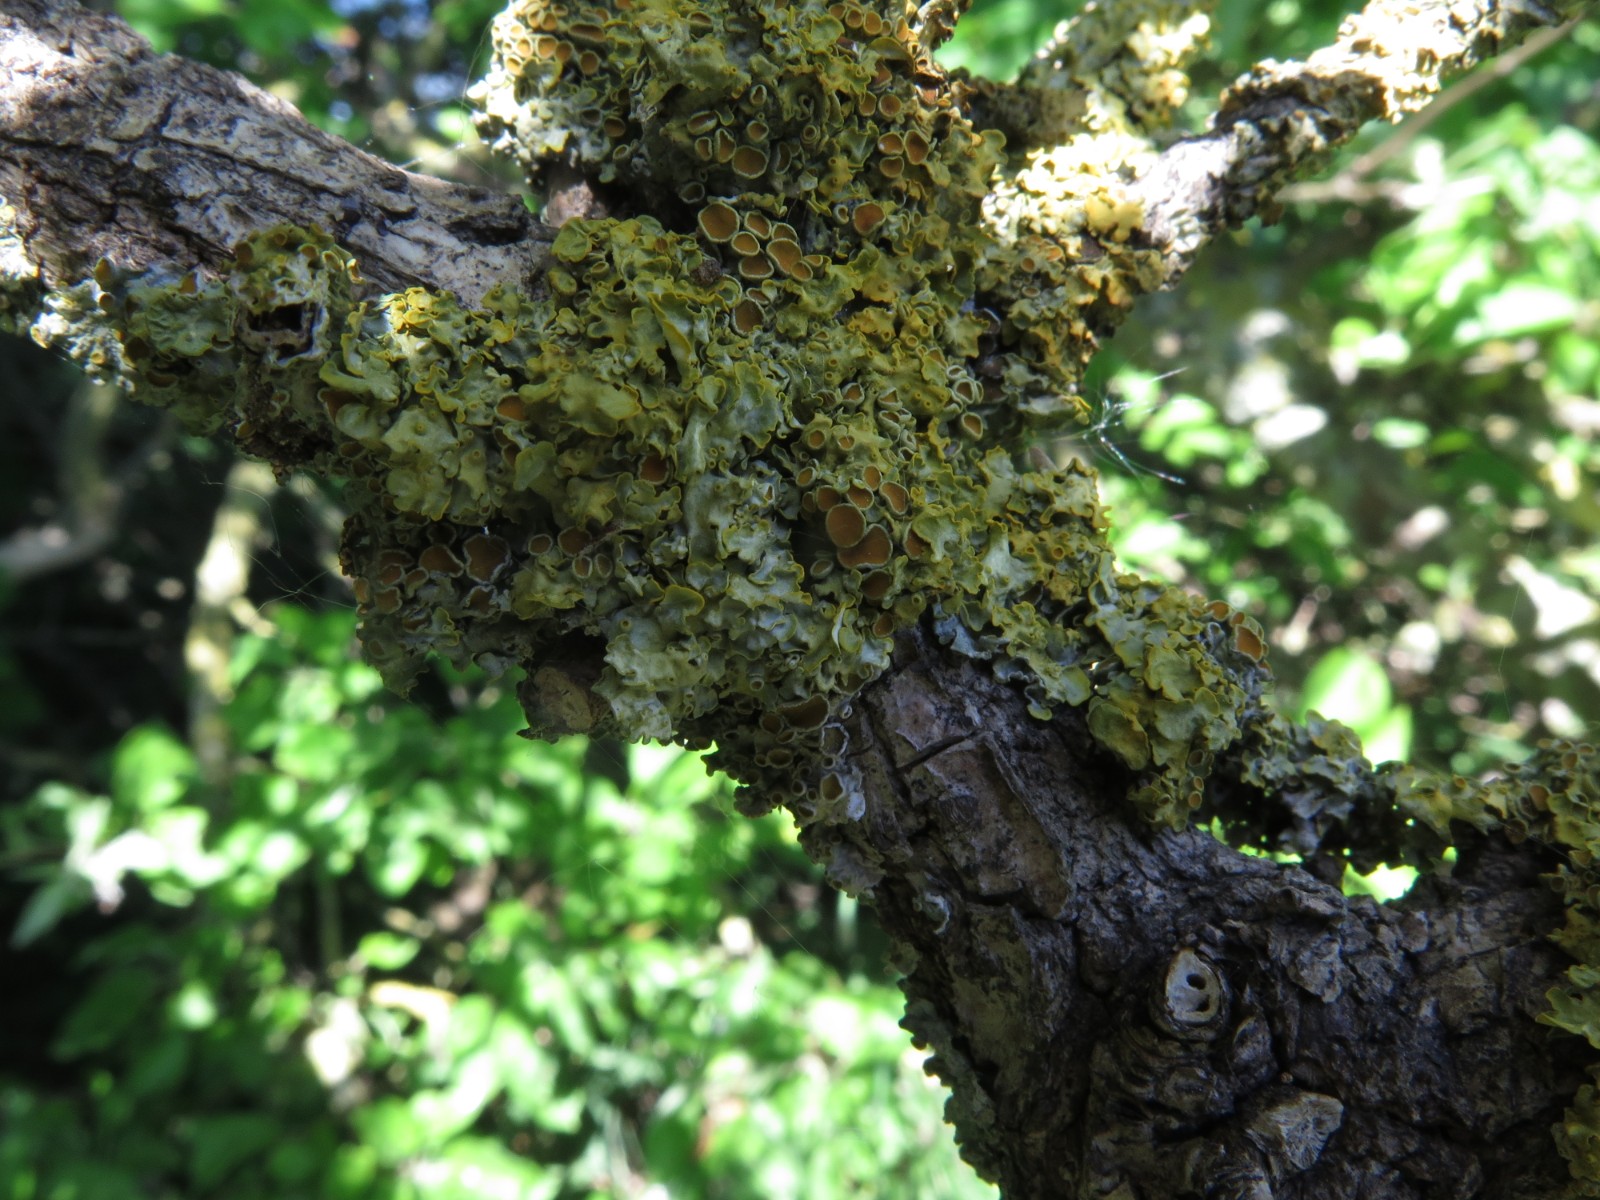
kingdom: Fungi
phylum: Ascomycota
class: Lecanoromycetes
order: Teloschistales
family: Teloschistaceae
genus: Xanthoria
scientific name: Xanthoria parietina
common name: almindelig væggelav
